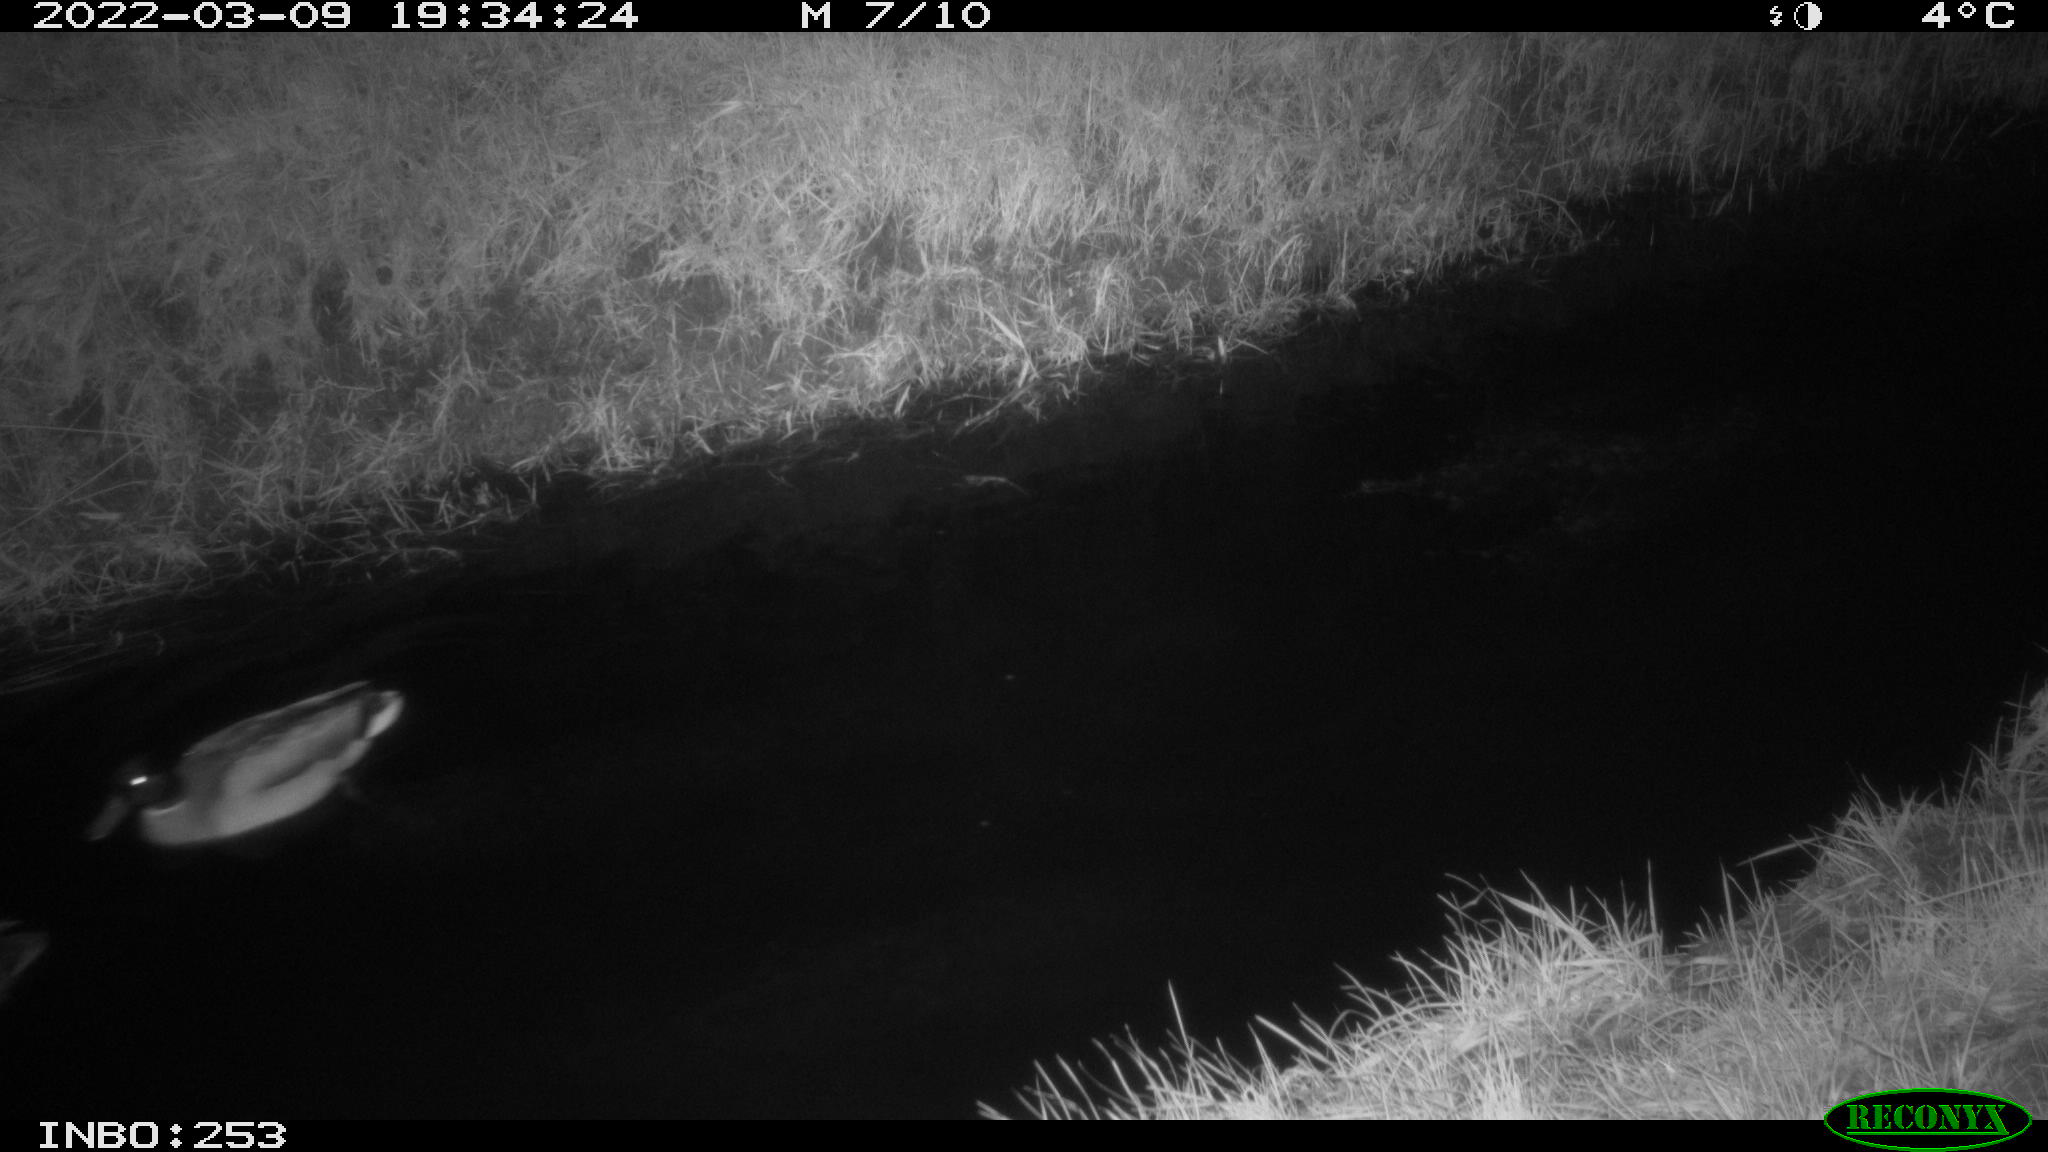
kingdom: Animalia
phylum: Chordata
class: Aves
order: Anseriformes
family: Anatidae
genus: Anas
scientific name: Anas platyrhynchos
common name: Mallard
